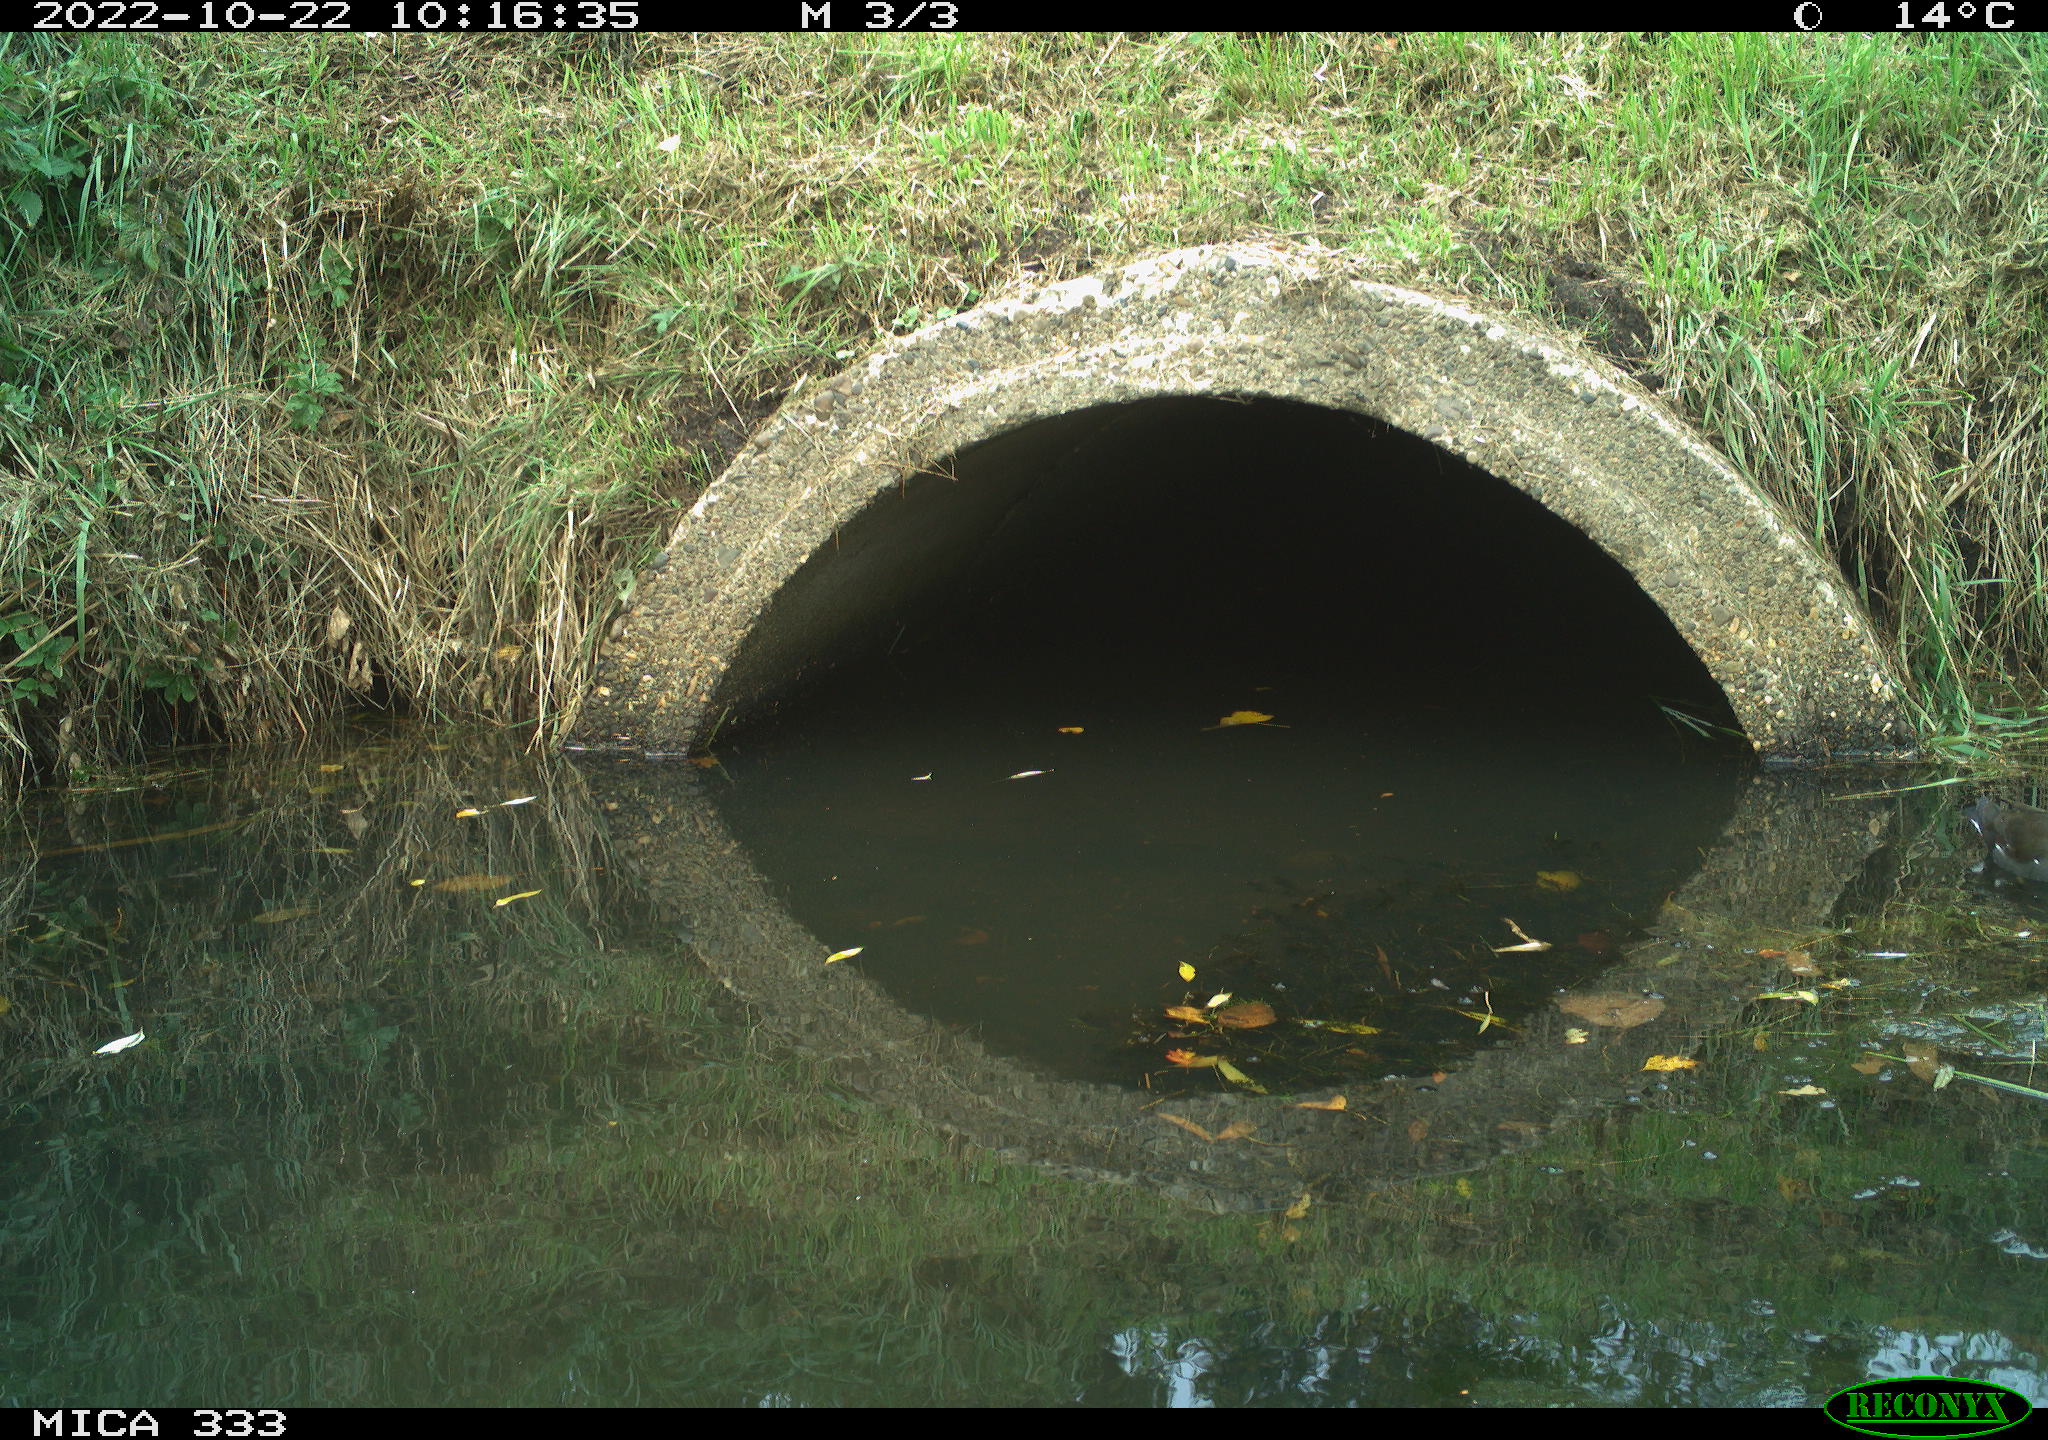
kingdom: Animalia
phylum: Chordata
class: Aves
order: Gruiformes
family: Rallidae
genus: Gallinula
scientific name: Gallinula chloropus
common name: Common moorhen
